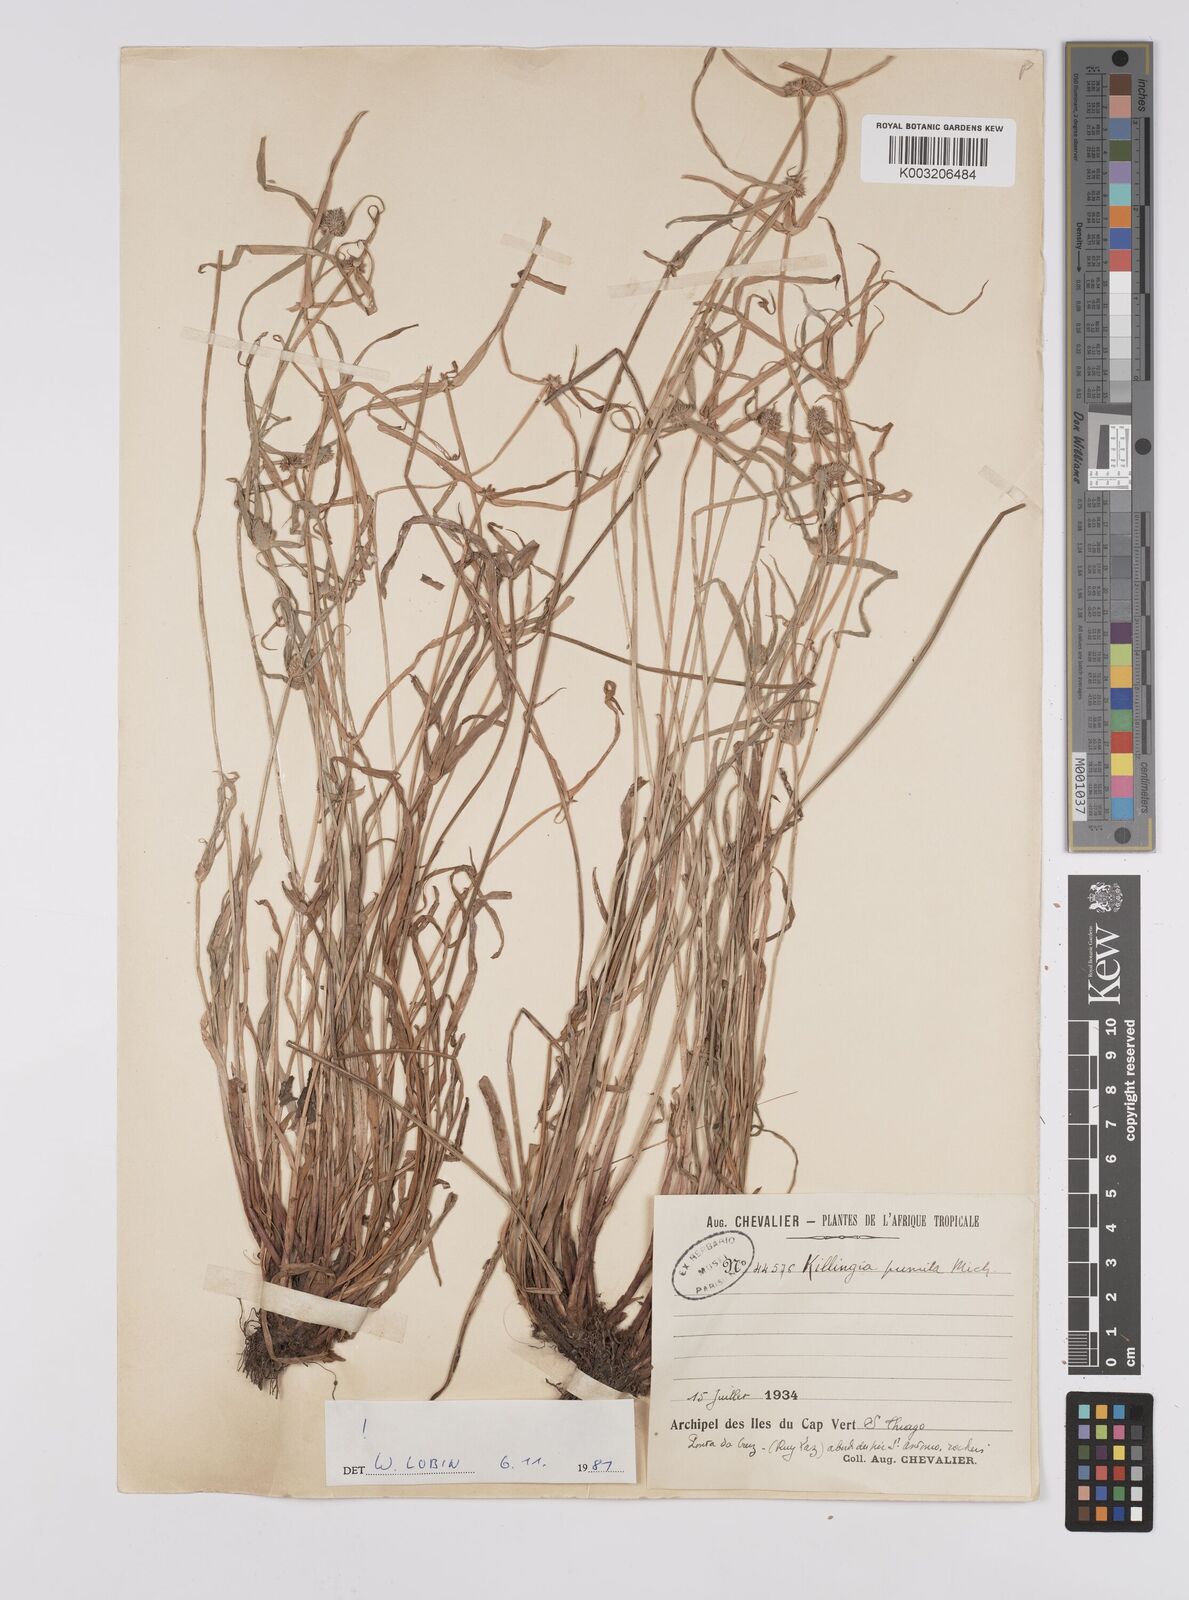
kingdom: Plantae
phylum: Tracheophyta
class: Liliopsida
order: Poales
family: Cyperaceae
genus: Cyperus
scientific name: Cyperus
